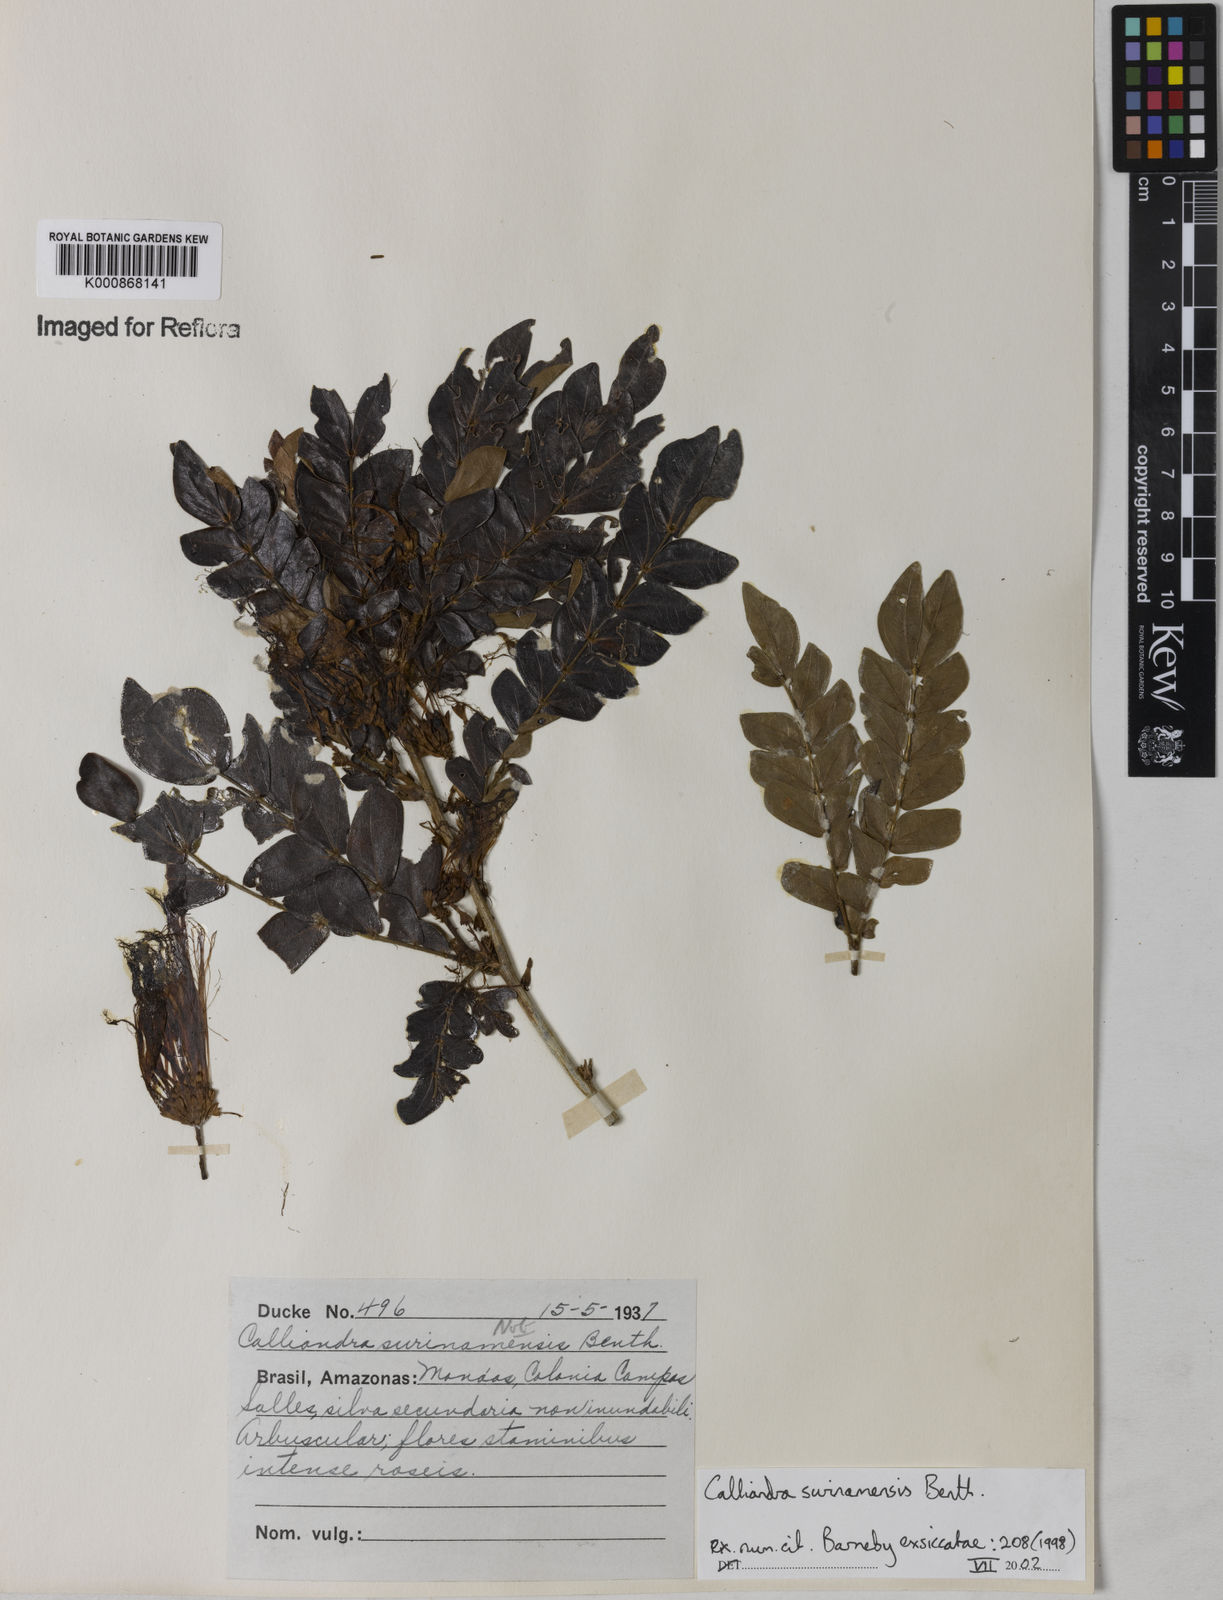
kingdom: Plantae
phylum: Tracheophyta
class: Magnoliopsida
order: Fabales
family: Fabaceae
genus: Calliandra
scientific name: Calliandra surinamensis
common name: Pink powder puff
